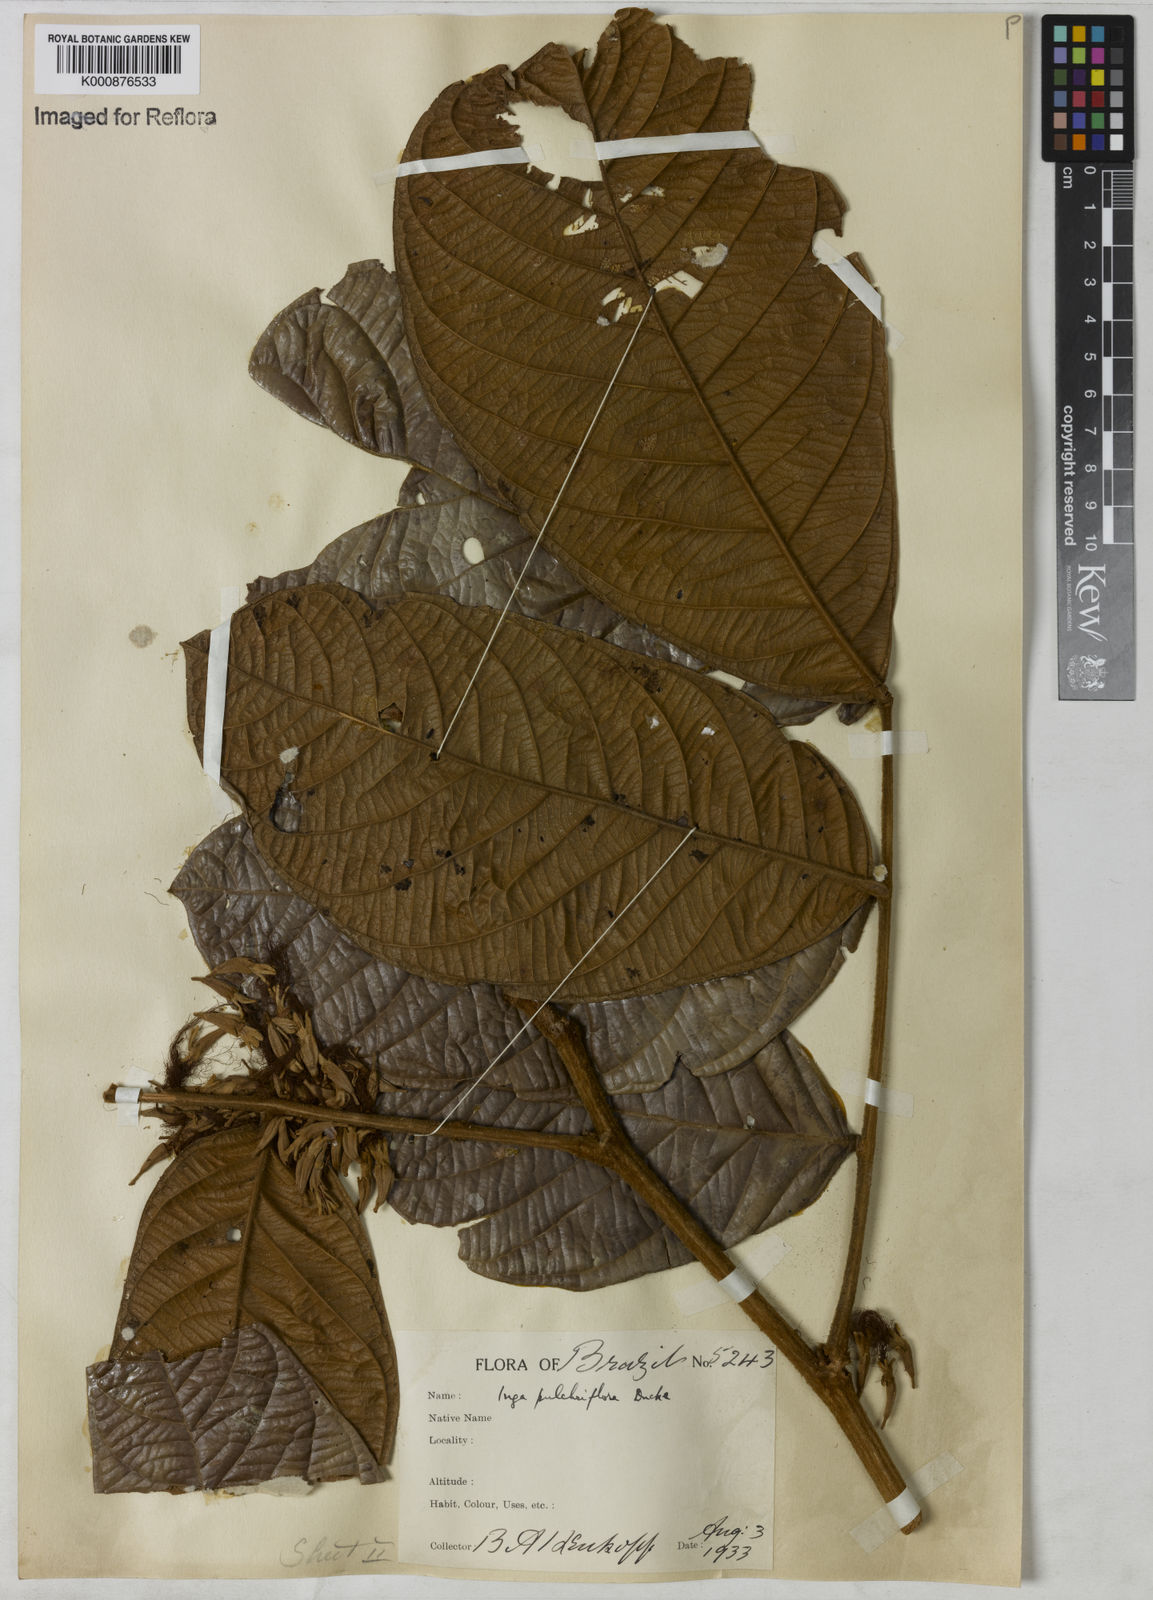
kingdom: Plantae
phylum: Tracheophyta
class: Magnoliopsida
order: Fabales
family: Fabaceae
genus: Inga
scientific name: Inga vismiifolia
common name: Howler monkey inga
